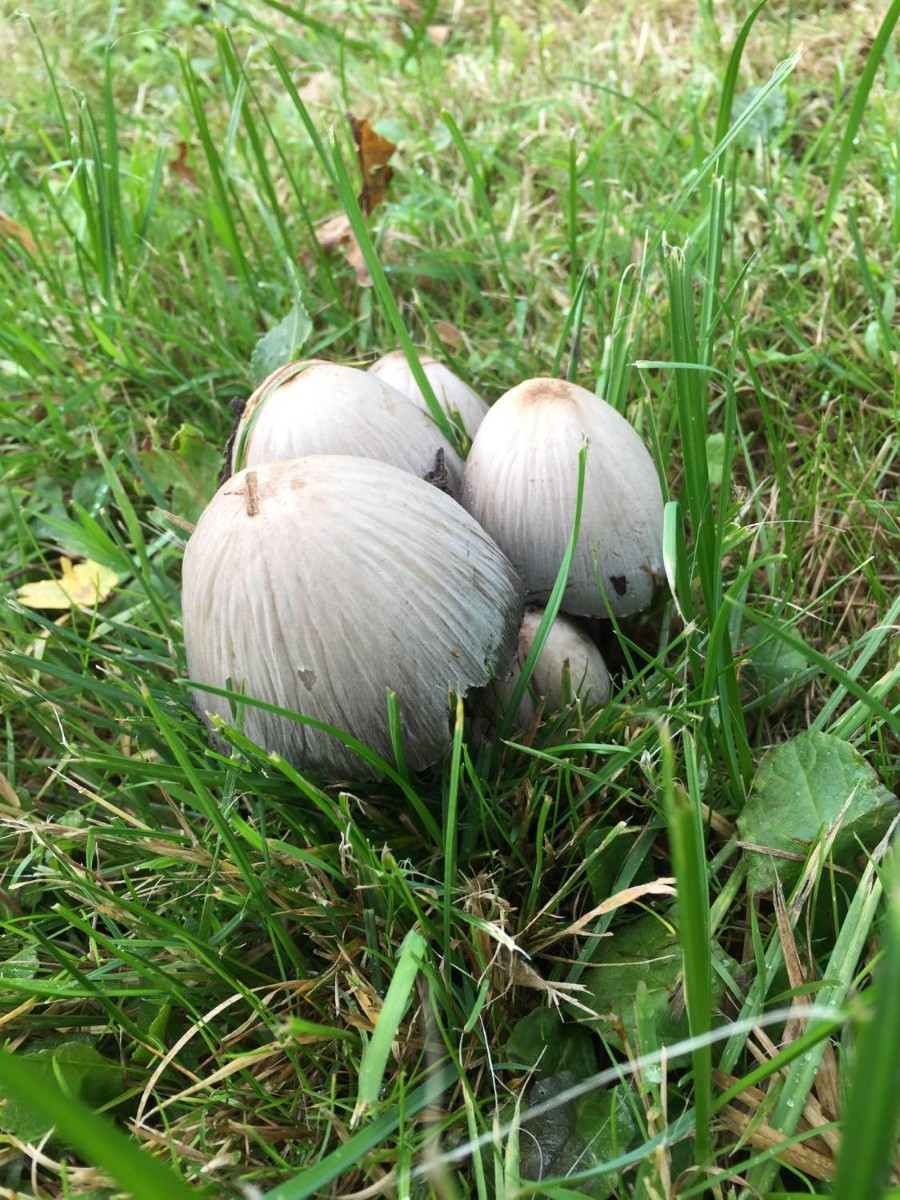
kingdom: Fungi
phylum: Basidiomycota
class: Agaricomycetes
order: Agaricales
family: Psathyrellaceae
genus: Coprinopsis
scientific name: Coprinopsis atramentaria
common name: almindelig blækhat
